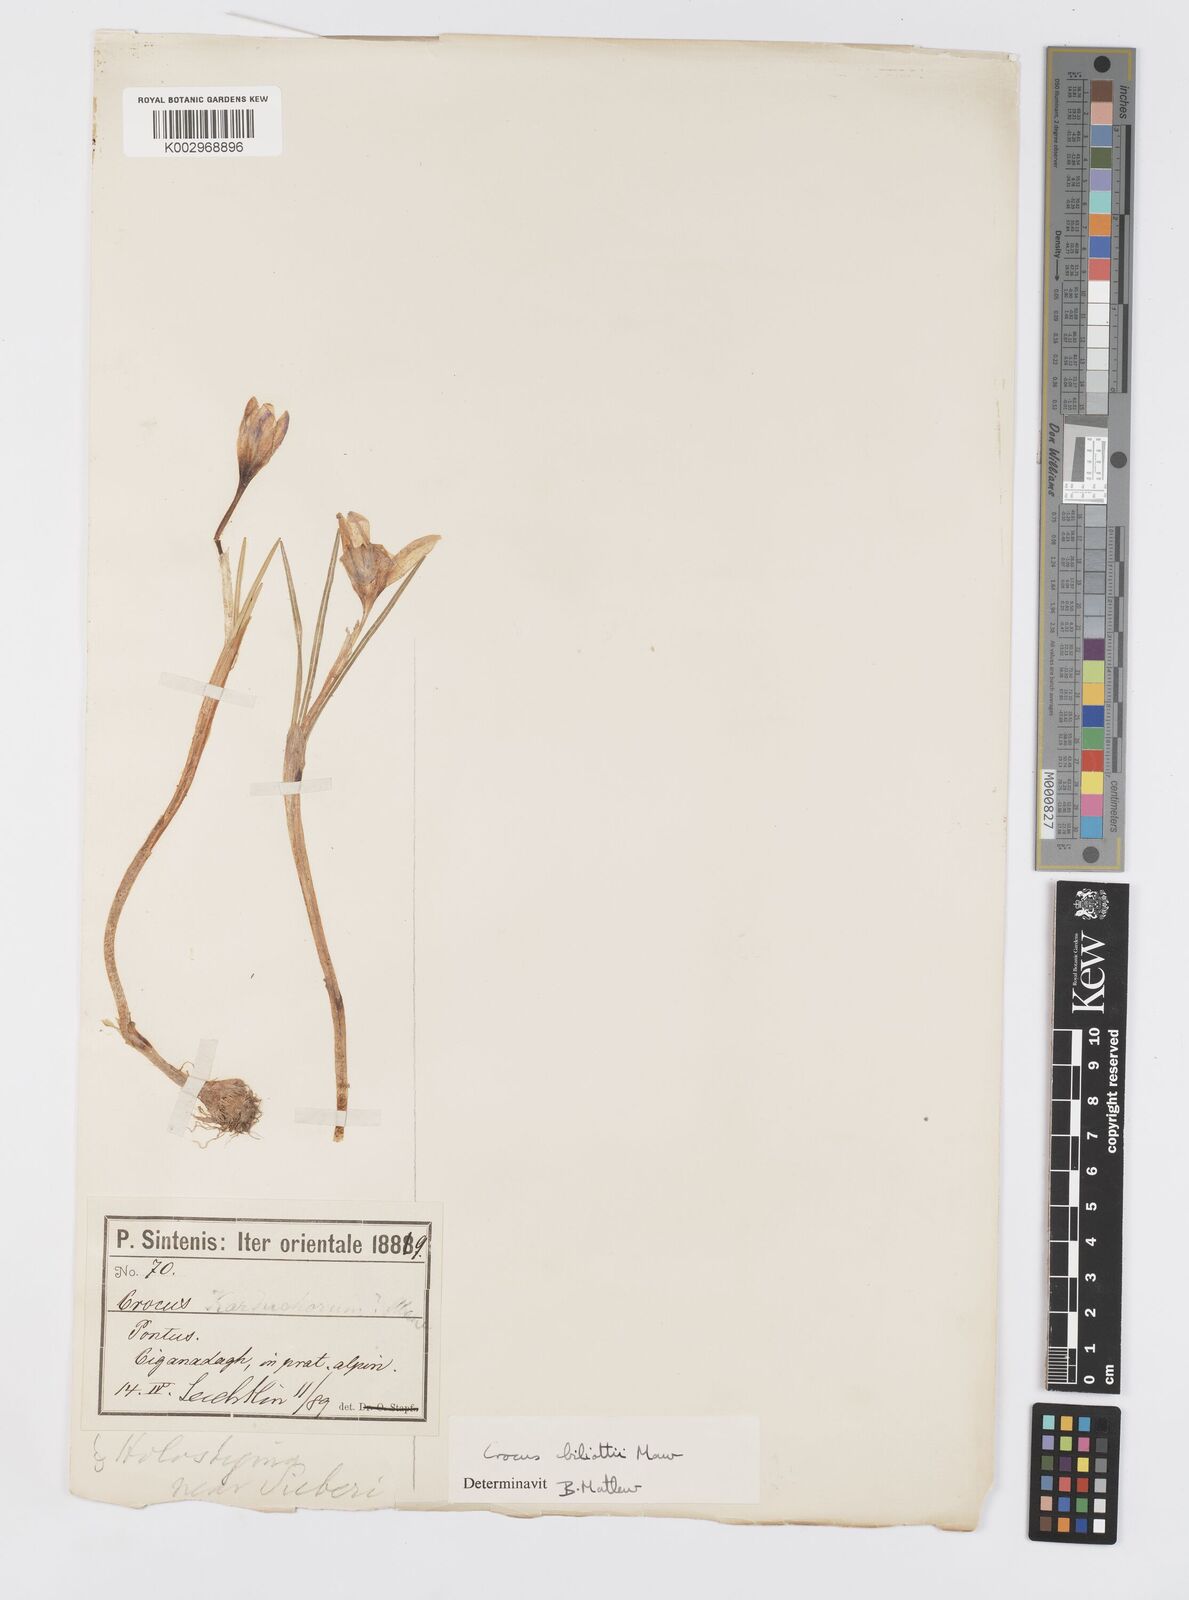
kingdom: Plantae
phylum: Tracheophyta
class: Liliopsida
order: Asparagales
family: Iridaceae
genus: Crocus
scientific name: Crocus aerius
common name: Aerial crocus
